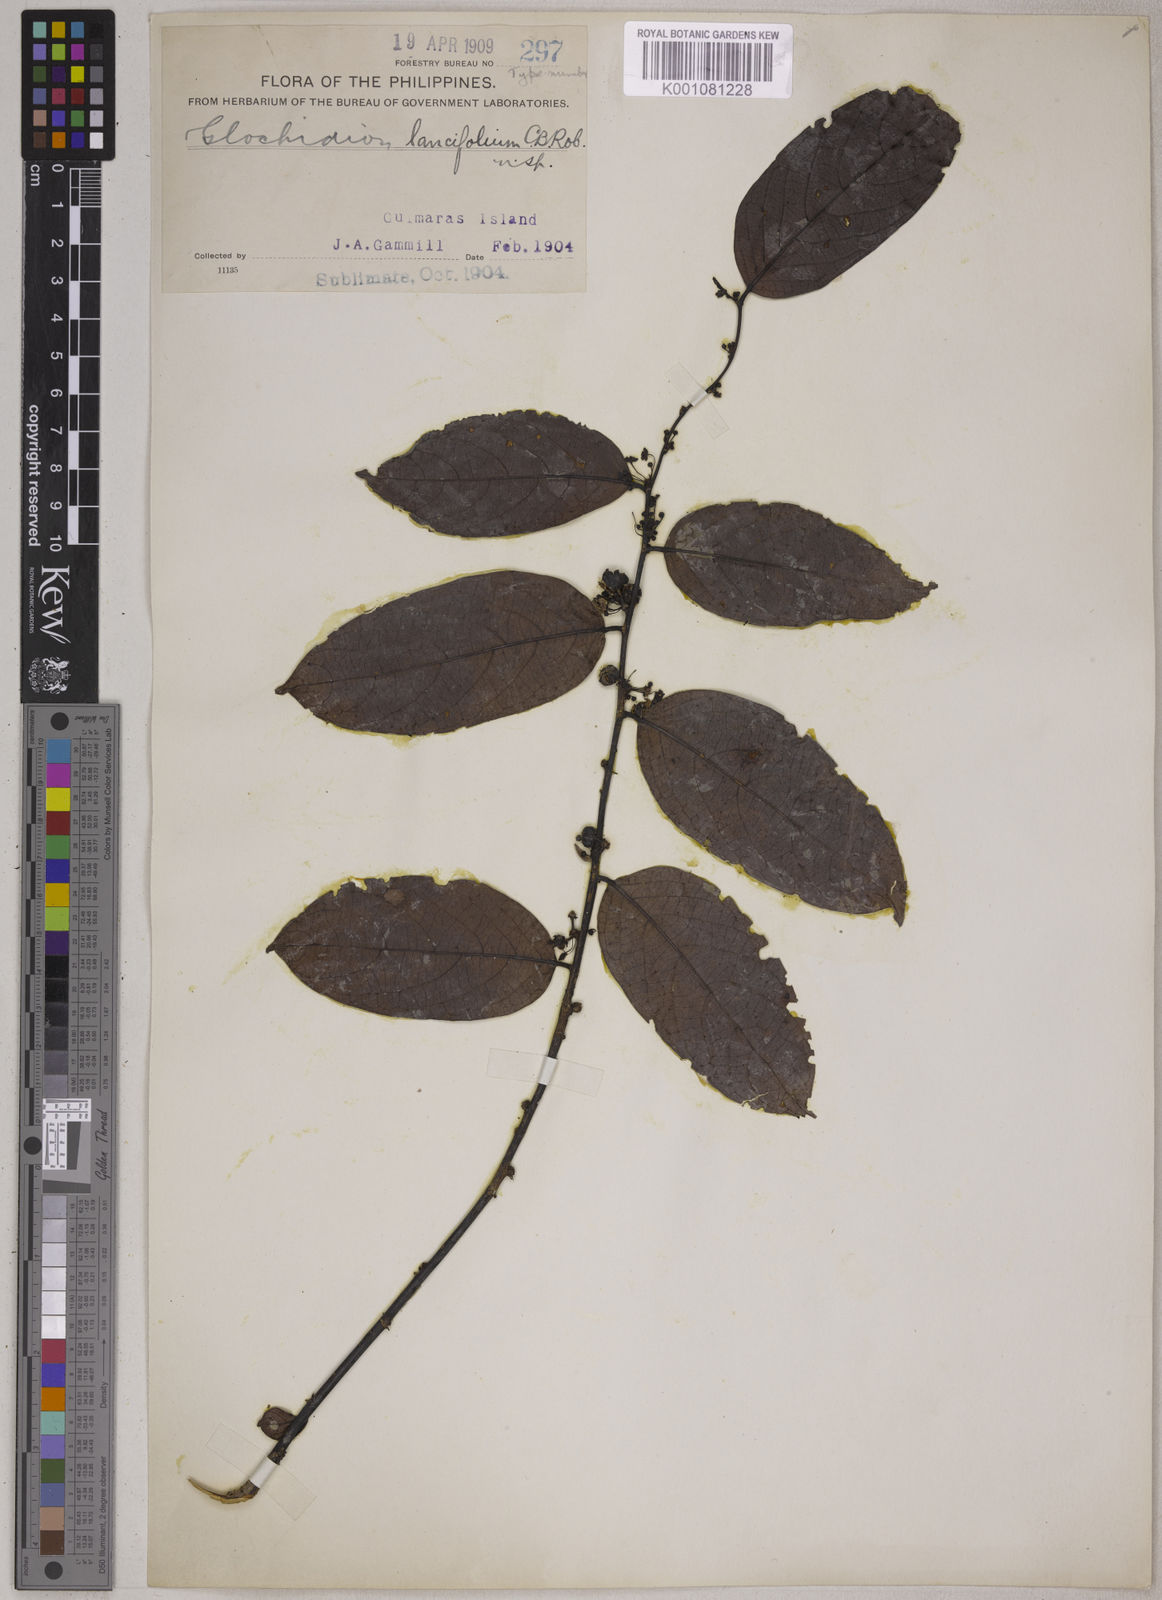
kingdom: Plantae
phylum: Tracheophyta
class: Magnoliopsida
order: Malpighiales
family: Phyllanthaceae
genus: Glochidion
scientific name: Glochidion urophylloides
